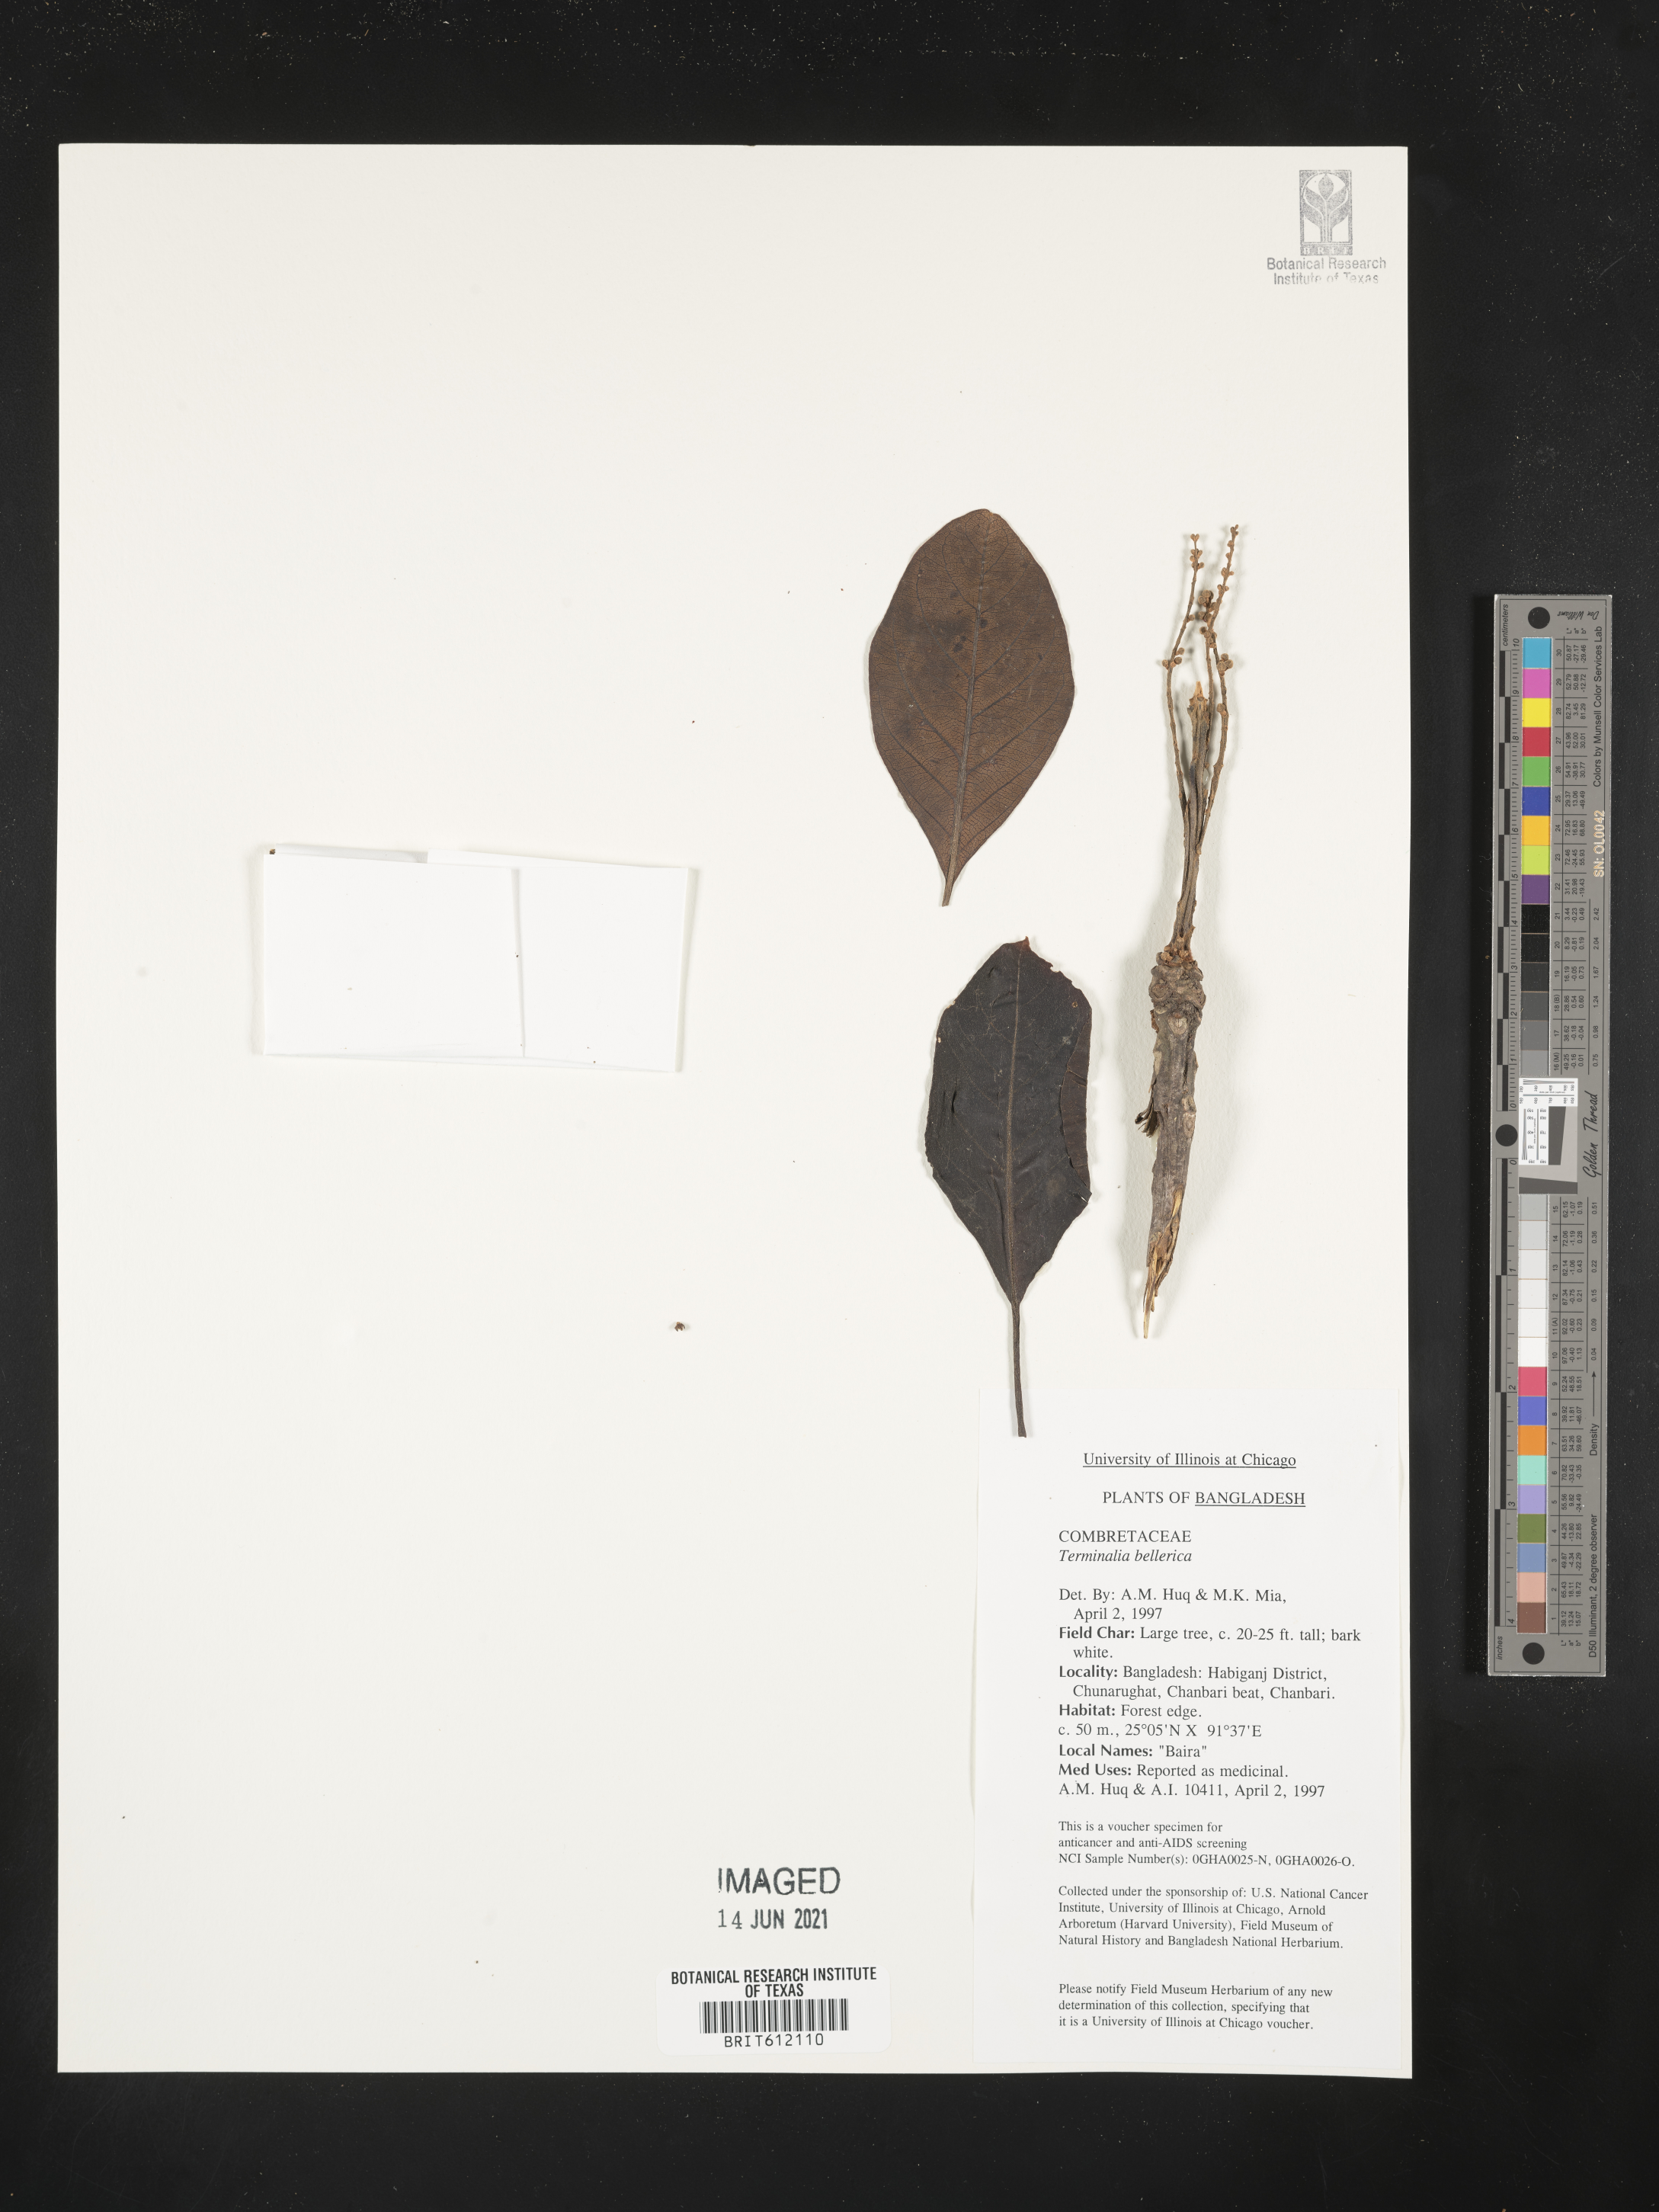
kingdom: Plantae
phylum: Tracheophyta
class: Magnoliopsida
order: Myrtales
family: Combretaceae
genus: Terminalia
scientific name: Terminalia bellirica
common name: Beleric myrobalan
